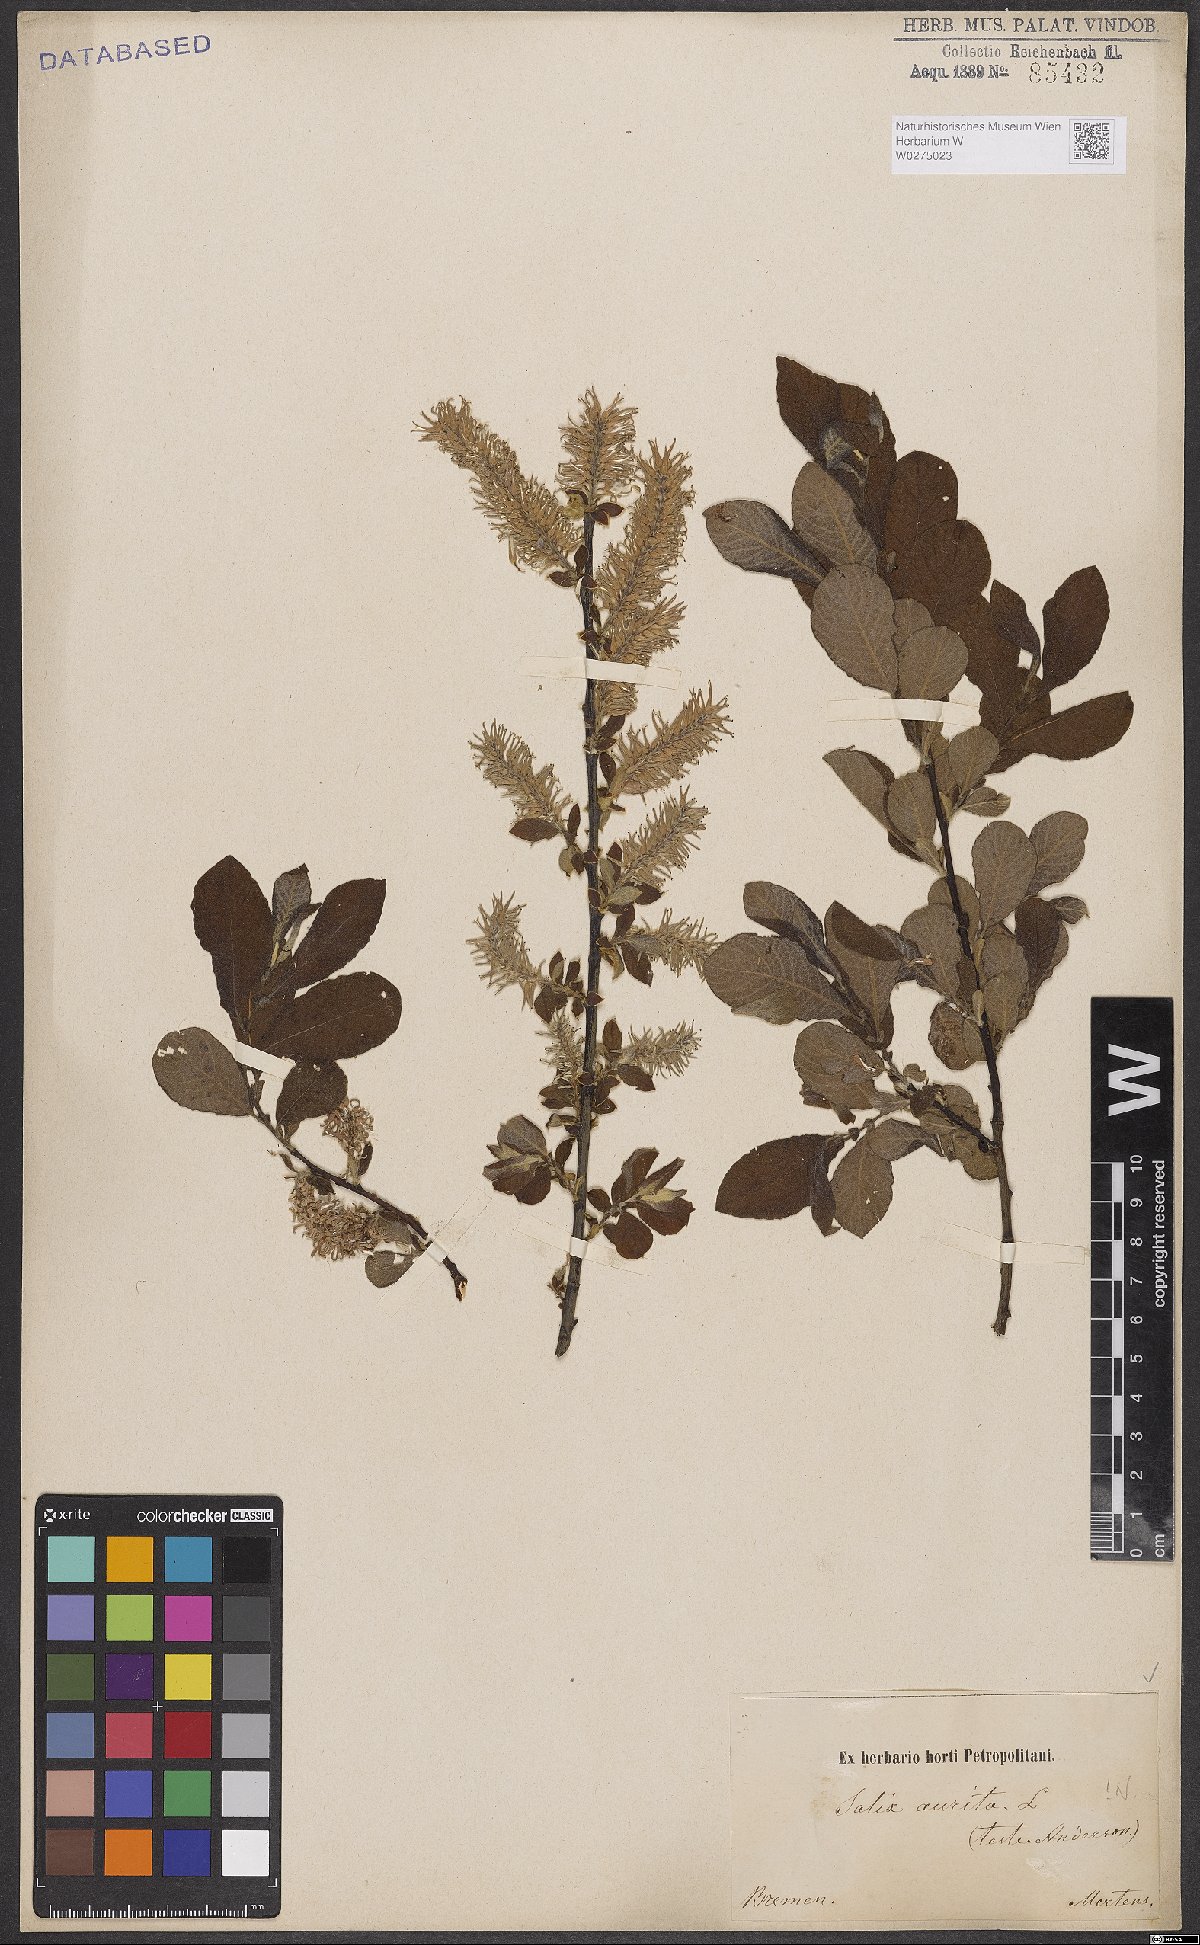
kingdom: Plantae
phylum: Tracheophyta
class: Magnoliopsida
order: Malpighiales
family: Salicaceae
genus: Salix
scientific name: Salix aurita
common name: Eared willow
